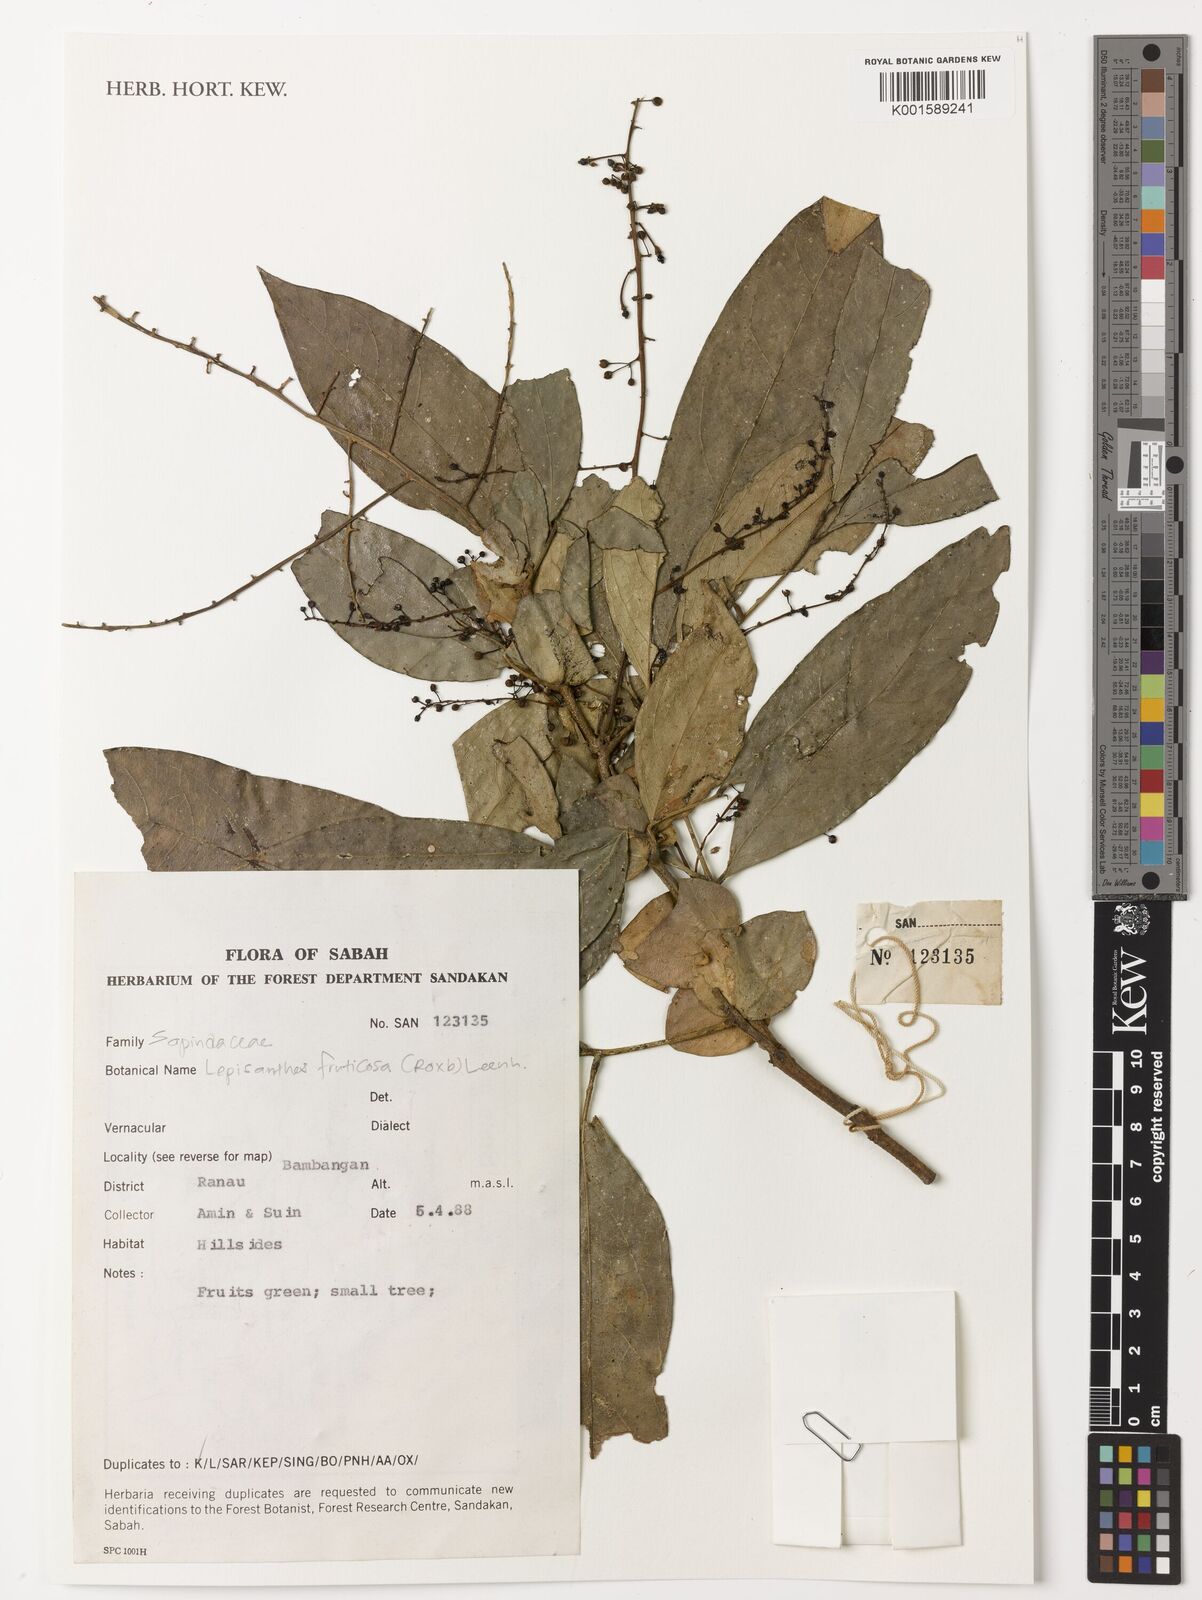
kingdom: Plantae
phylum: Tracheophyta
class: Magnoliopsida
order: Sapindales
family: Sapindaceae
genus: Lepisanthes
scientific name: Lepisanthes fruticosa
